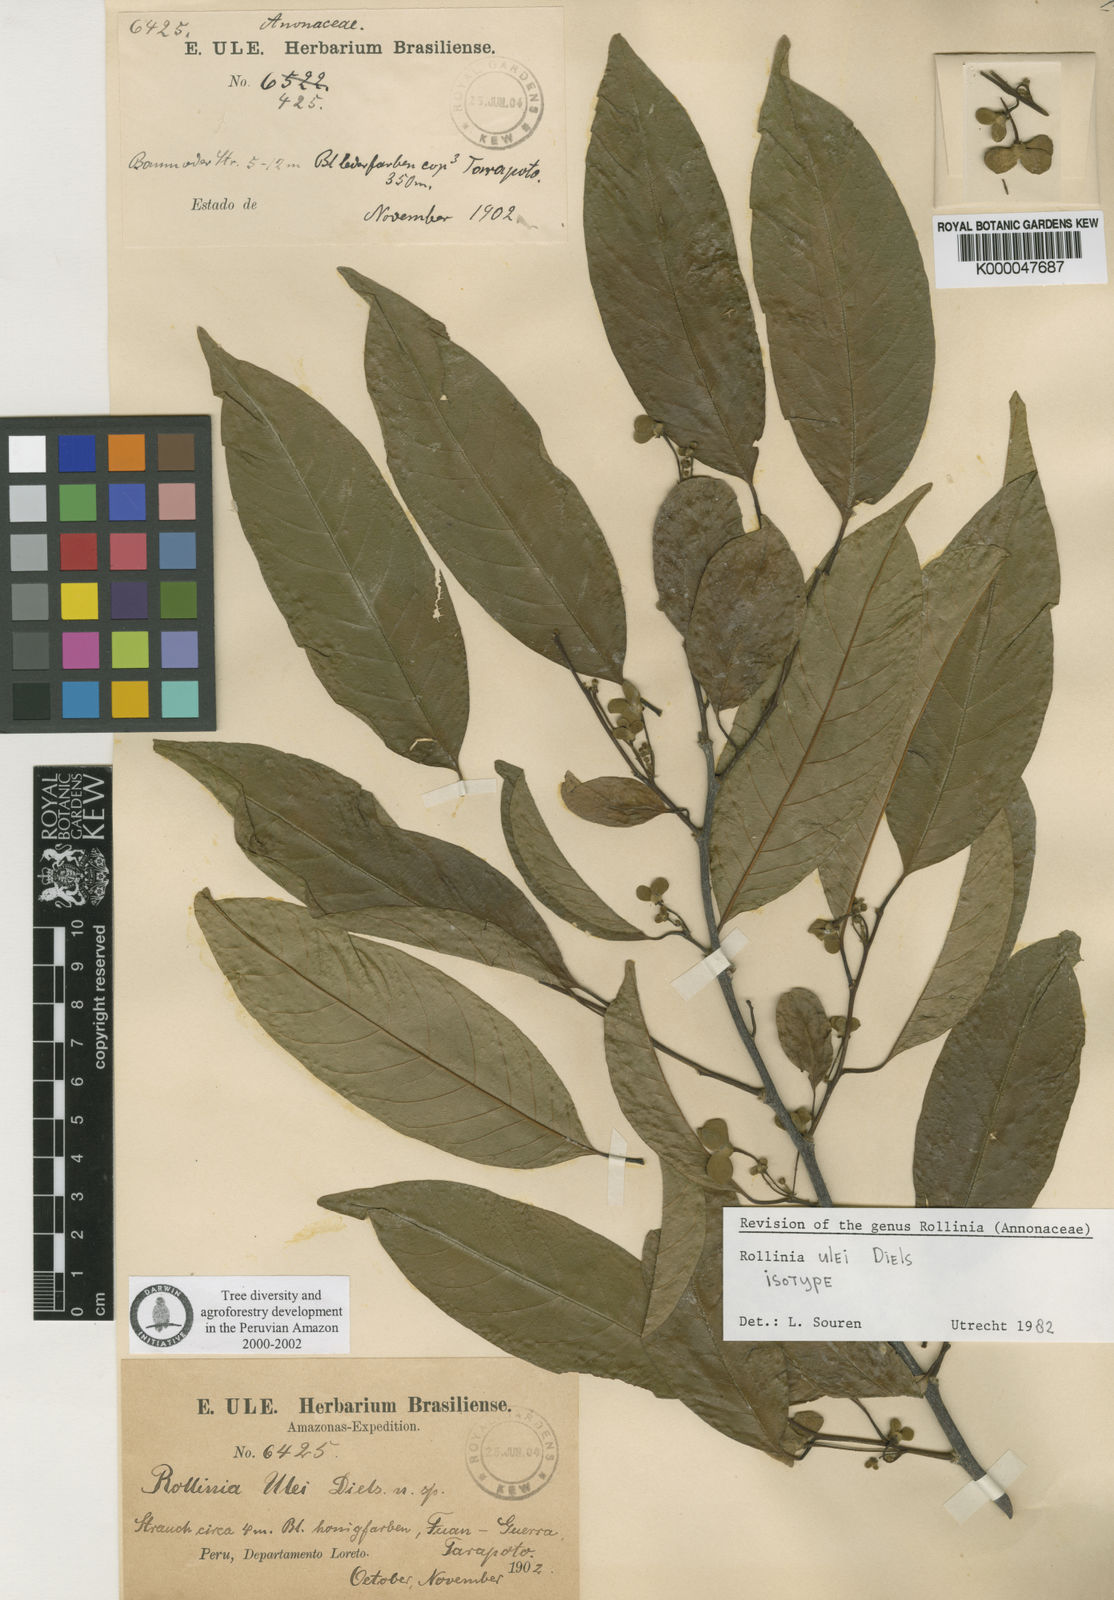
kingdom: Plantae
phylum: Tracheophyta
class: Magnoliopsida
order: Magnoliales
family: Annonaceae
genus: Annona
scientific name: Annona neoulei
